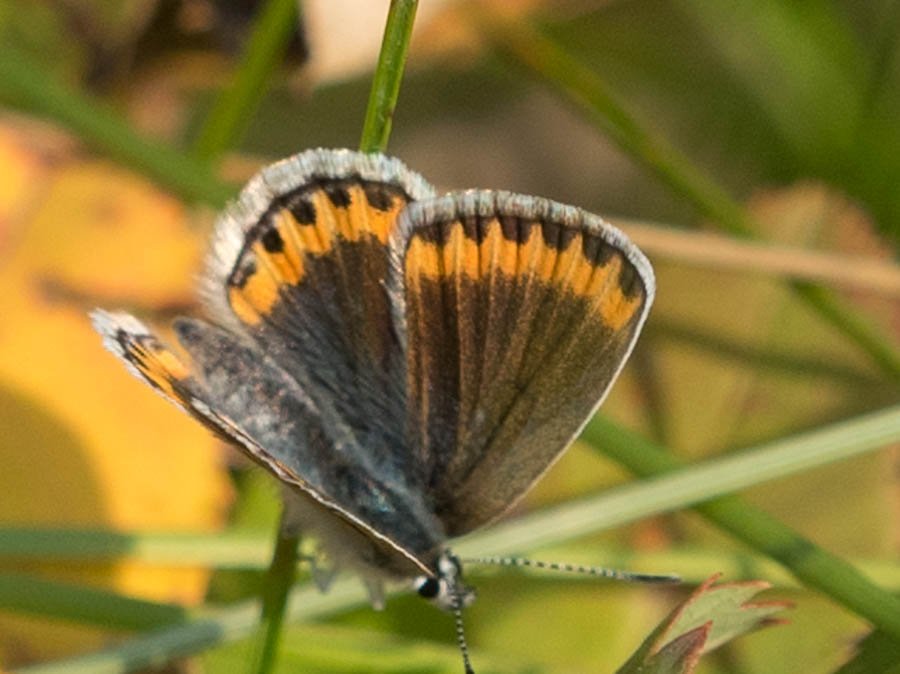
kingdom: Animalia
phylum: Arthropoda
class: Insecta
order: Lepidoptera
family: Lycaenidae
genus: Lycaeides
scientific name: Lycaeides melissa
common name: Melissa Blue
